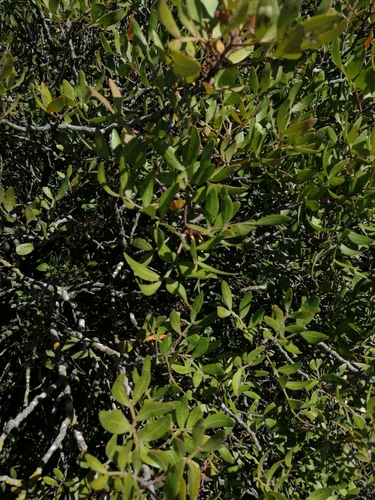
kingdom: Plantae
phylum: Tracheophyta
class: Magnoliopsida
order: Sapindales
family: Anacardiaceae
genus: Pistacia
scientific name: Pistacia lentiscus
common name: Lentisk
